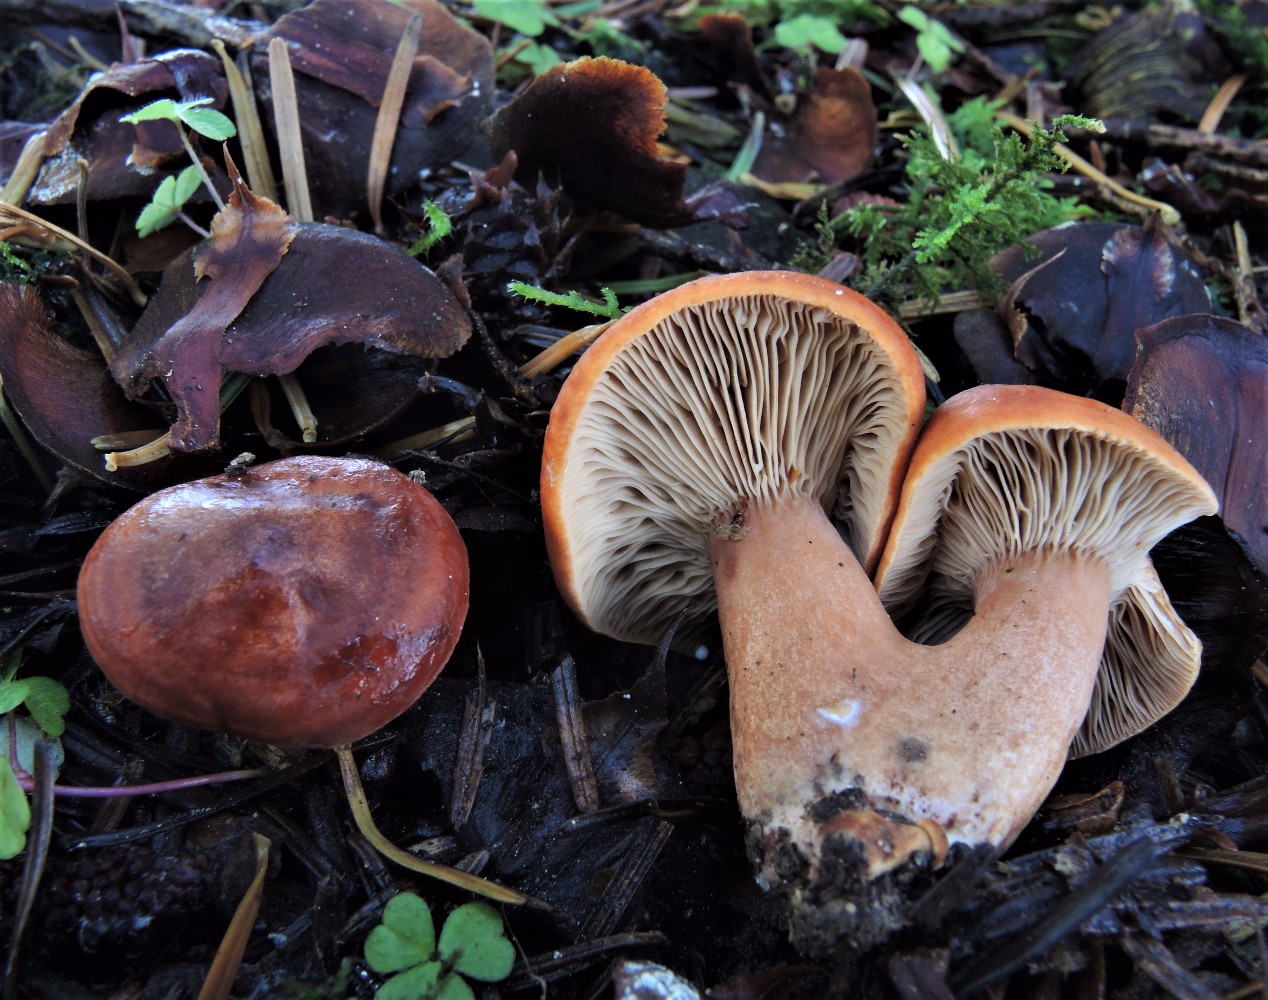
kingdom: Fungi
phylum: Basidiomycota
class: Agaricomycetes
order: Russulales
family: Russulaceae
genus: Lactarius
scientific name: Lactarius fulvissimus
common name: ræve-mælkehat
